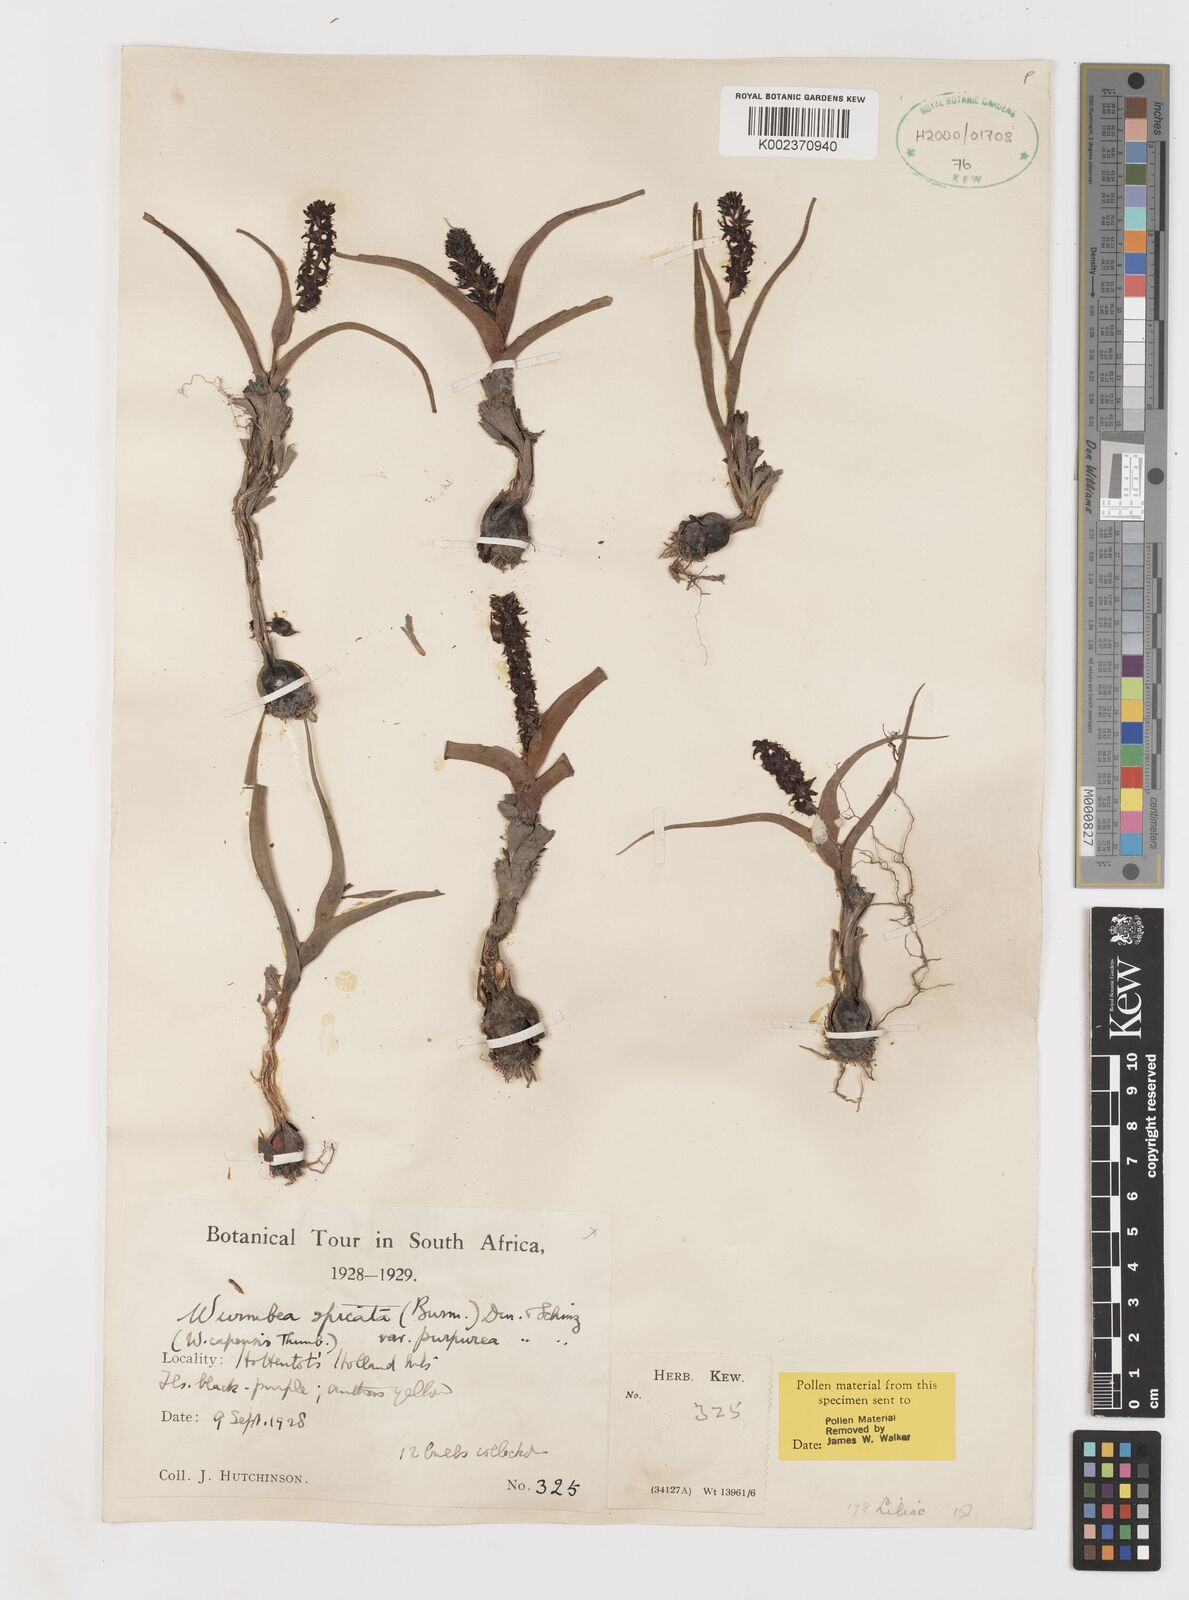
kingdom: Plantae
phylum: Tracheophyta
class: Liliopsida
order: Liliales
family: Colchicaceae
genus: Wurmbea
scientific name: Wurmbea spicata
